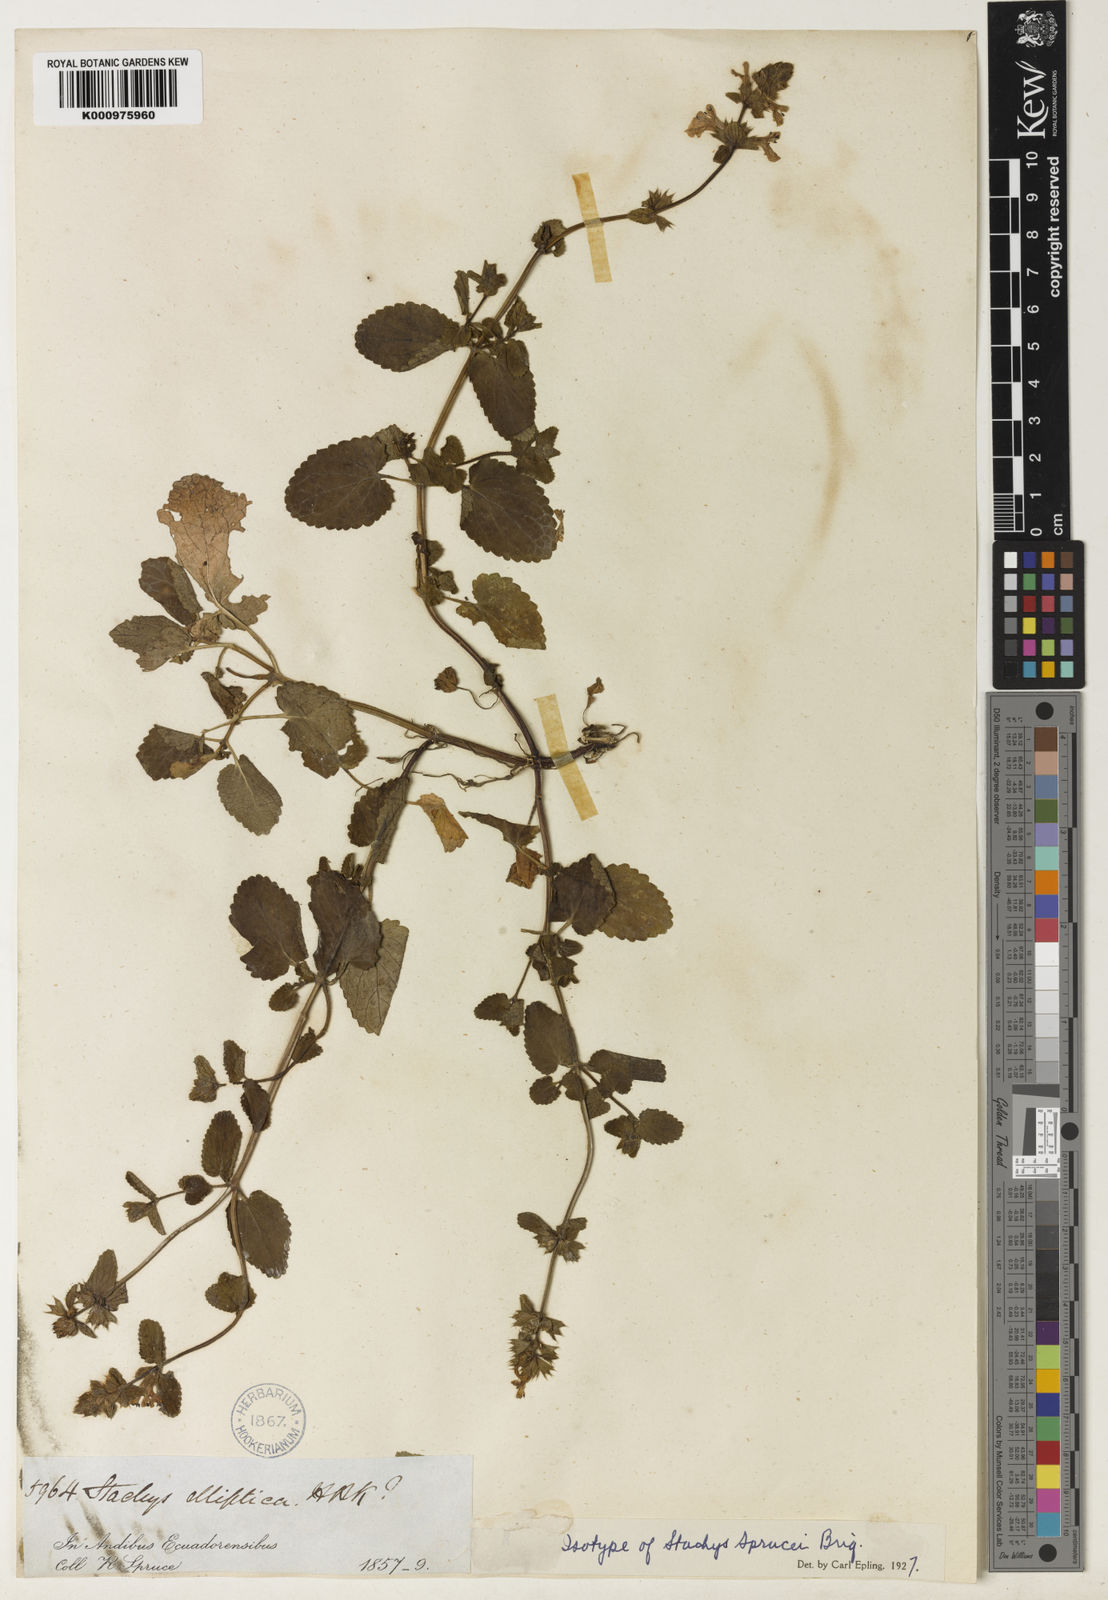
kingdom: Plantae
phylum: Tracheophyta
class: Magnoliopsida
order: Lamiales
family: Lamiaceae
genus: Stachys
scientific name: Stachys sprucei
